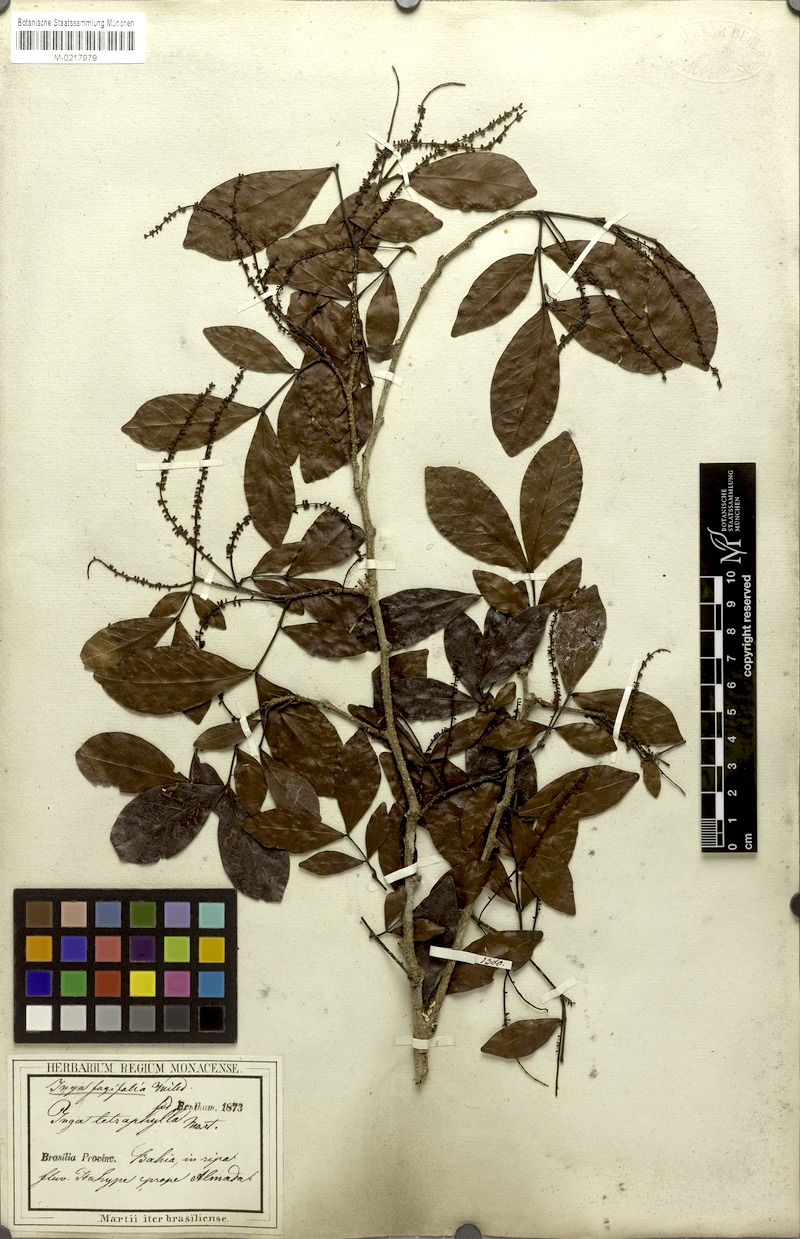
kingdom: Plantae
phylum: Tracheophyta
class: Magnoliopsida
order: Fabales
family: Fabaceae
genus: Inga
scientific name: Inga laurina
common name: Red wood
